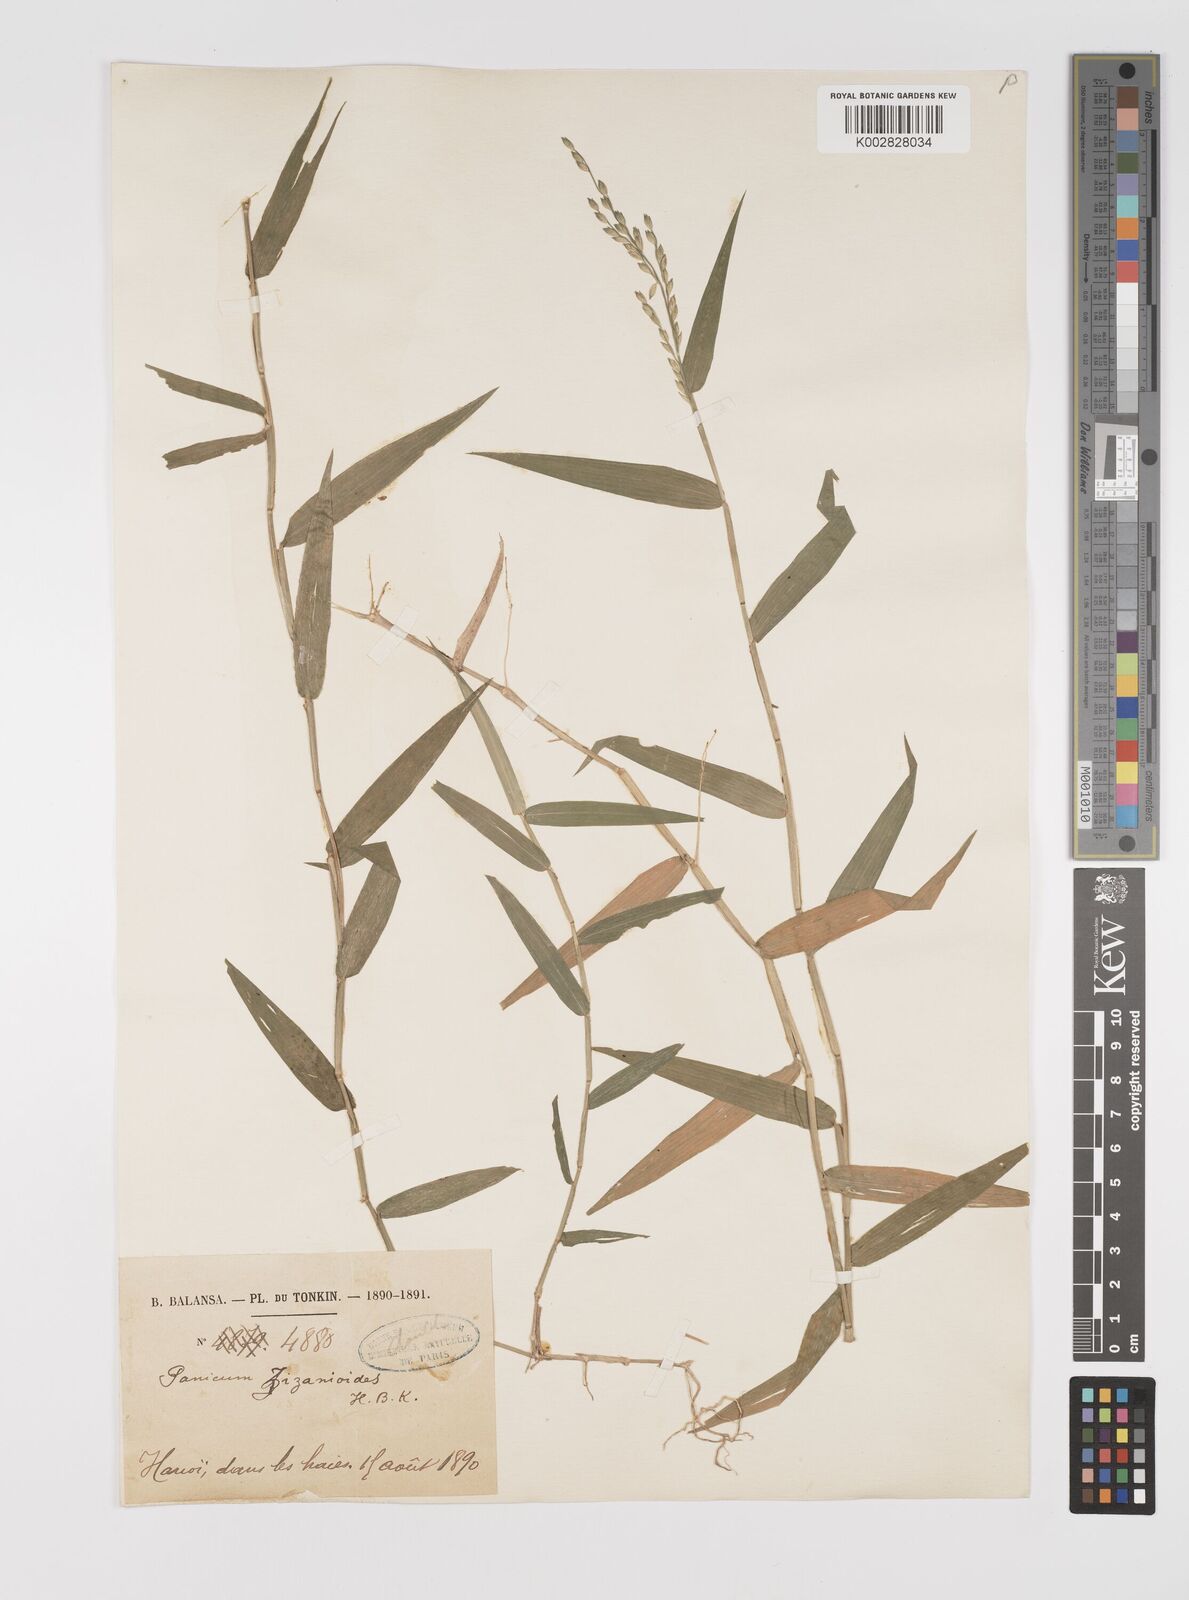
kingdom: Plantae
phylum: Tracheophyta
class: Liliopsida
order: Poales
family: Poaceae
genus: Acroceras
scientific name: Acroceras munroanum
